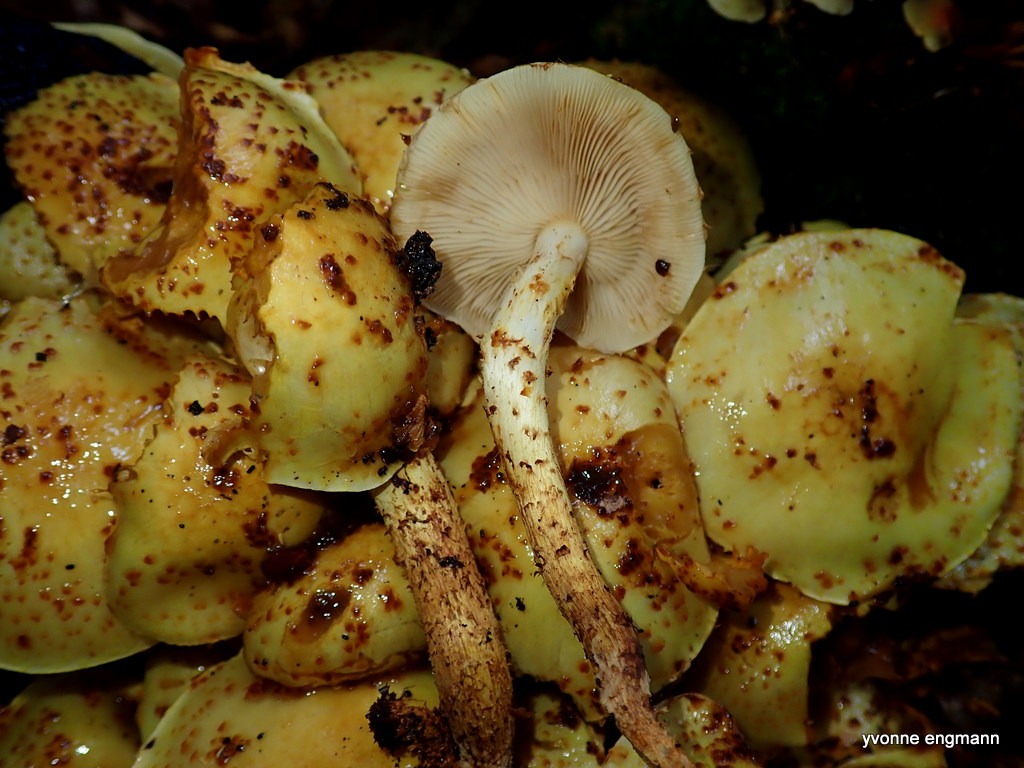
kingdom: Fungi
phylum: Basidiomycota
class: Agaricomycetes
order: Agaricales
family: Strophariaceae
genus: Pholiota
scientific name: Pholiota jahnii
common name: slimet skælhat
